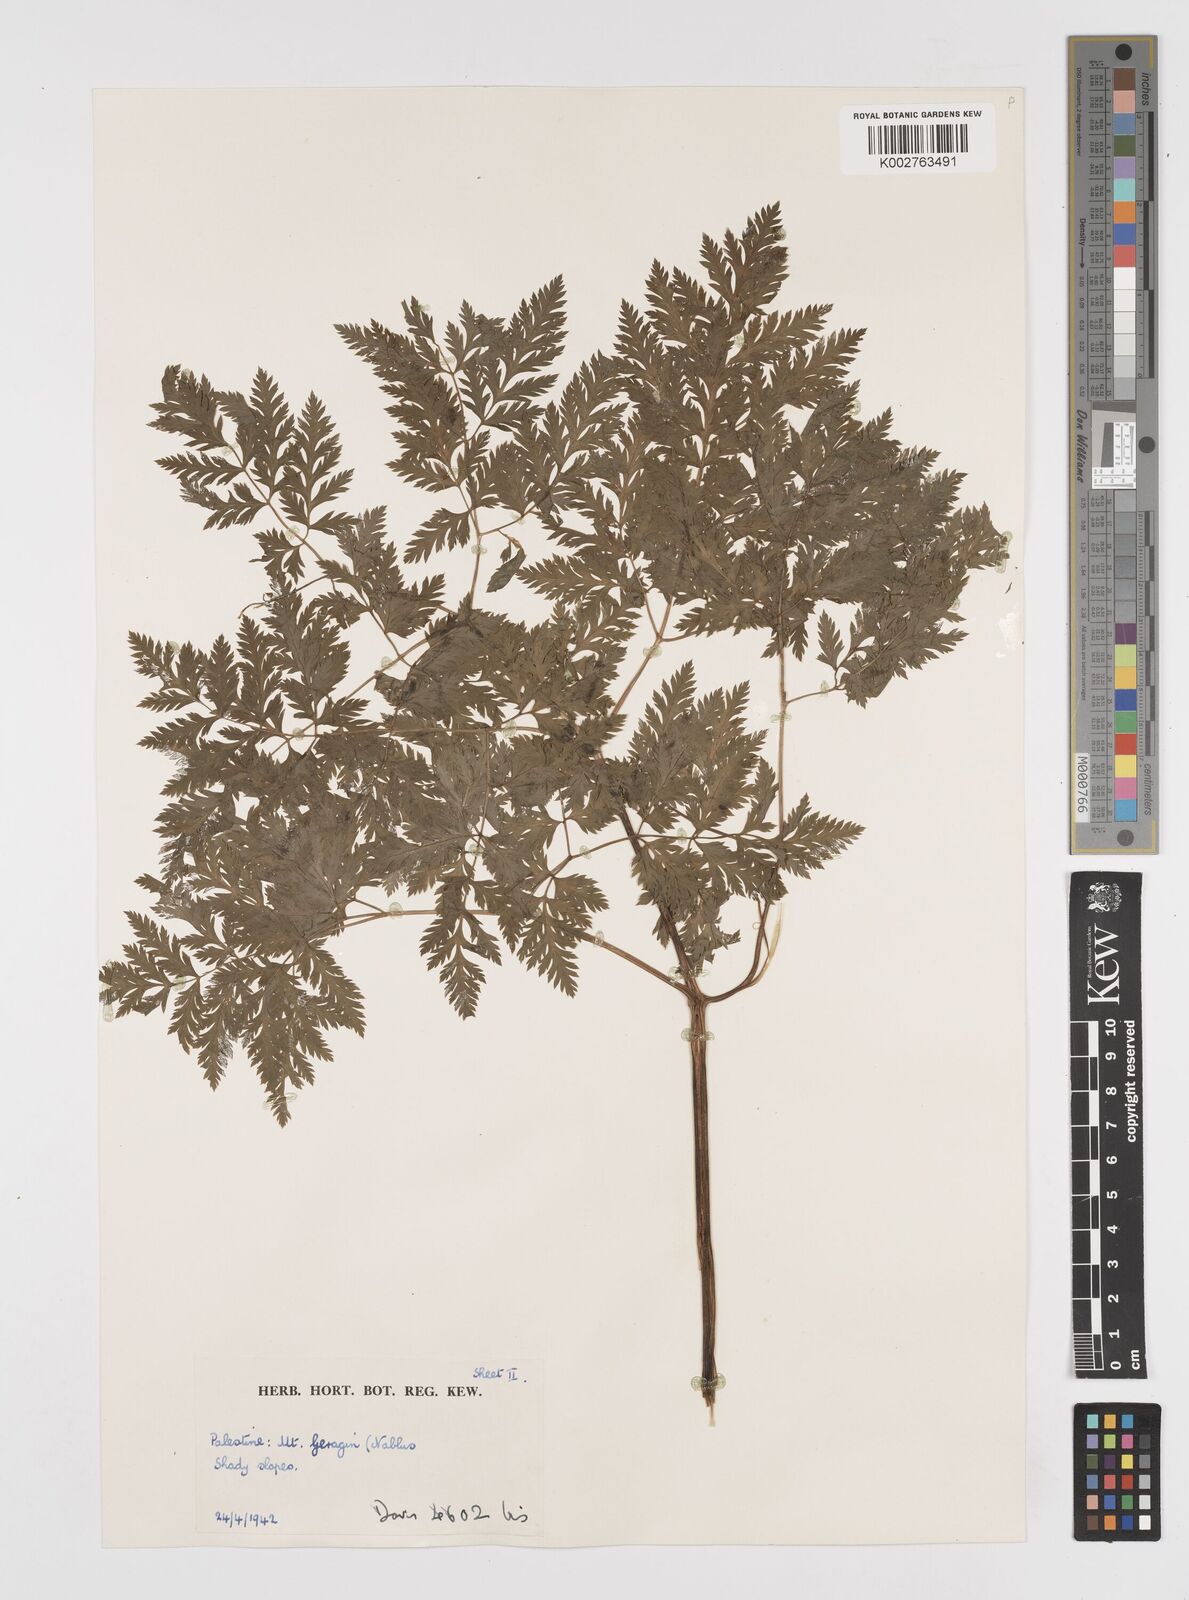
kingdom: Plantae
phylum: Tracheophyta
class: Magnoliopsida
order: Apiales
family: Apiaceae
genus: Anthriscus
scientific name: Anthriscus lamprocarpa
